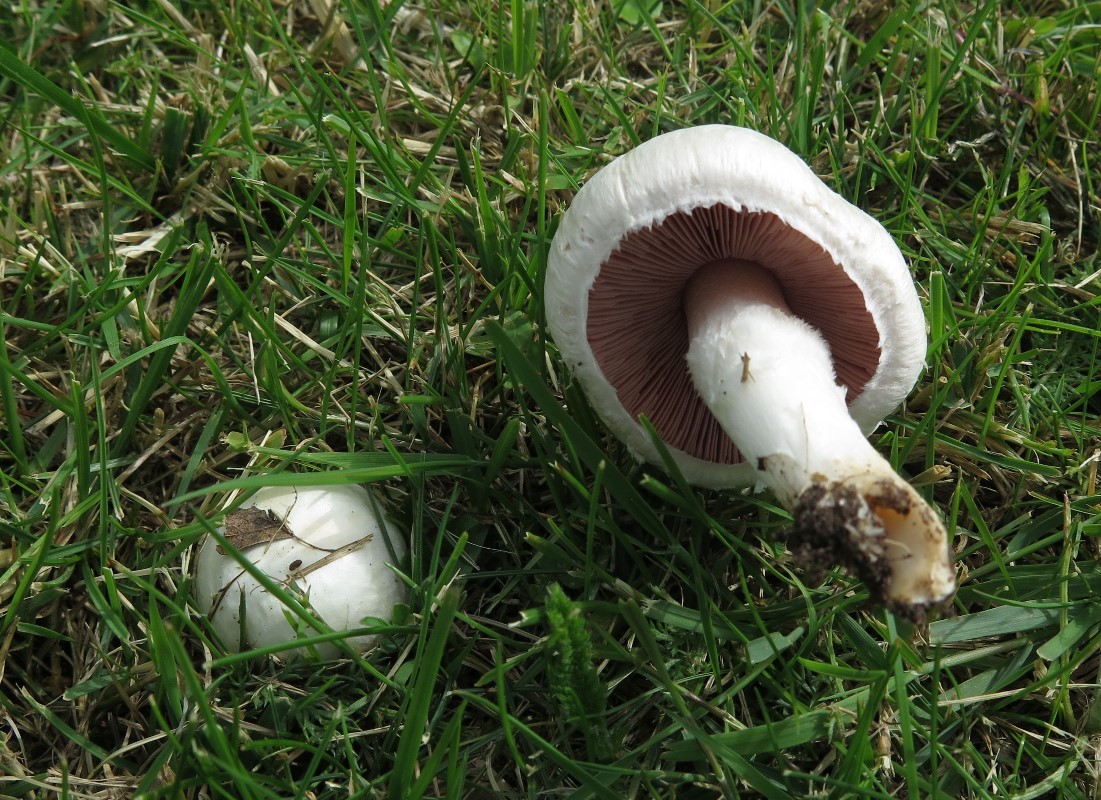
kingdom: Fungi
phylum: Basidiomycota
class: Agaricomycetes
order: Agaricales
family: Agaricaceae
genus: Agaricus
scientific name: Agaricus campestris
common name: mark-champignon
